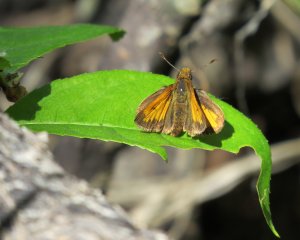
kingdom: Animalia
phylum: Arthropoda
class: Insecta
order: Lepidoptera
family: Hesperiidae
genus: Lon
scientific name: Lon hobomok
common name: Hobomok Skipper
